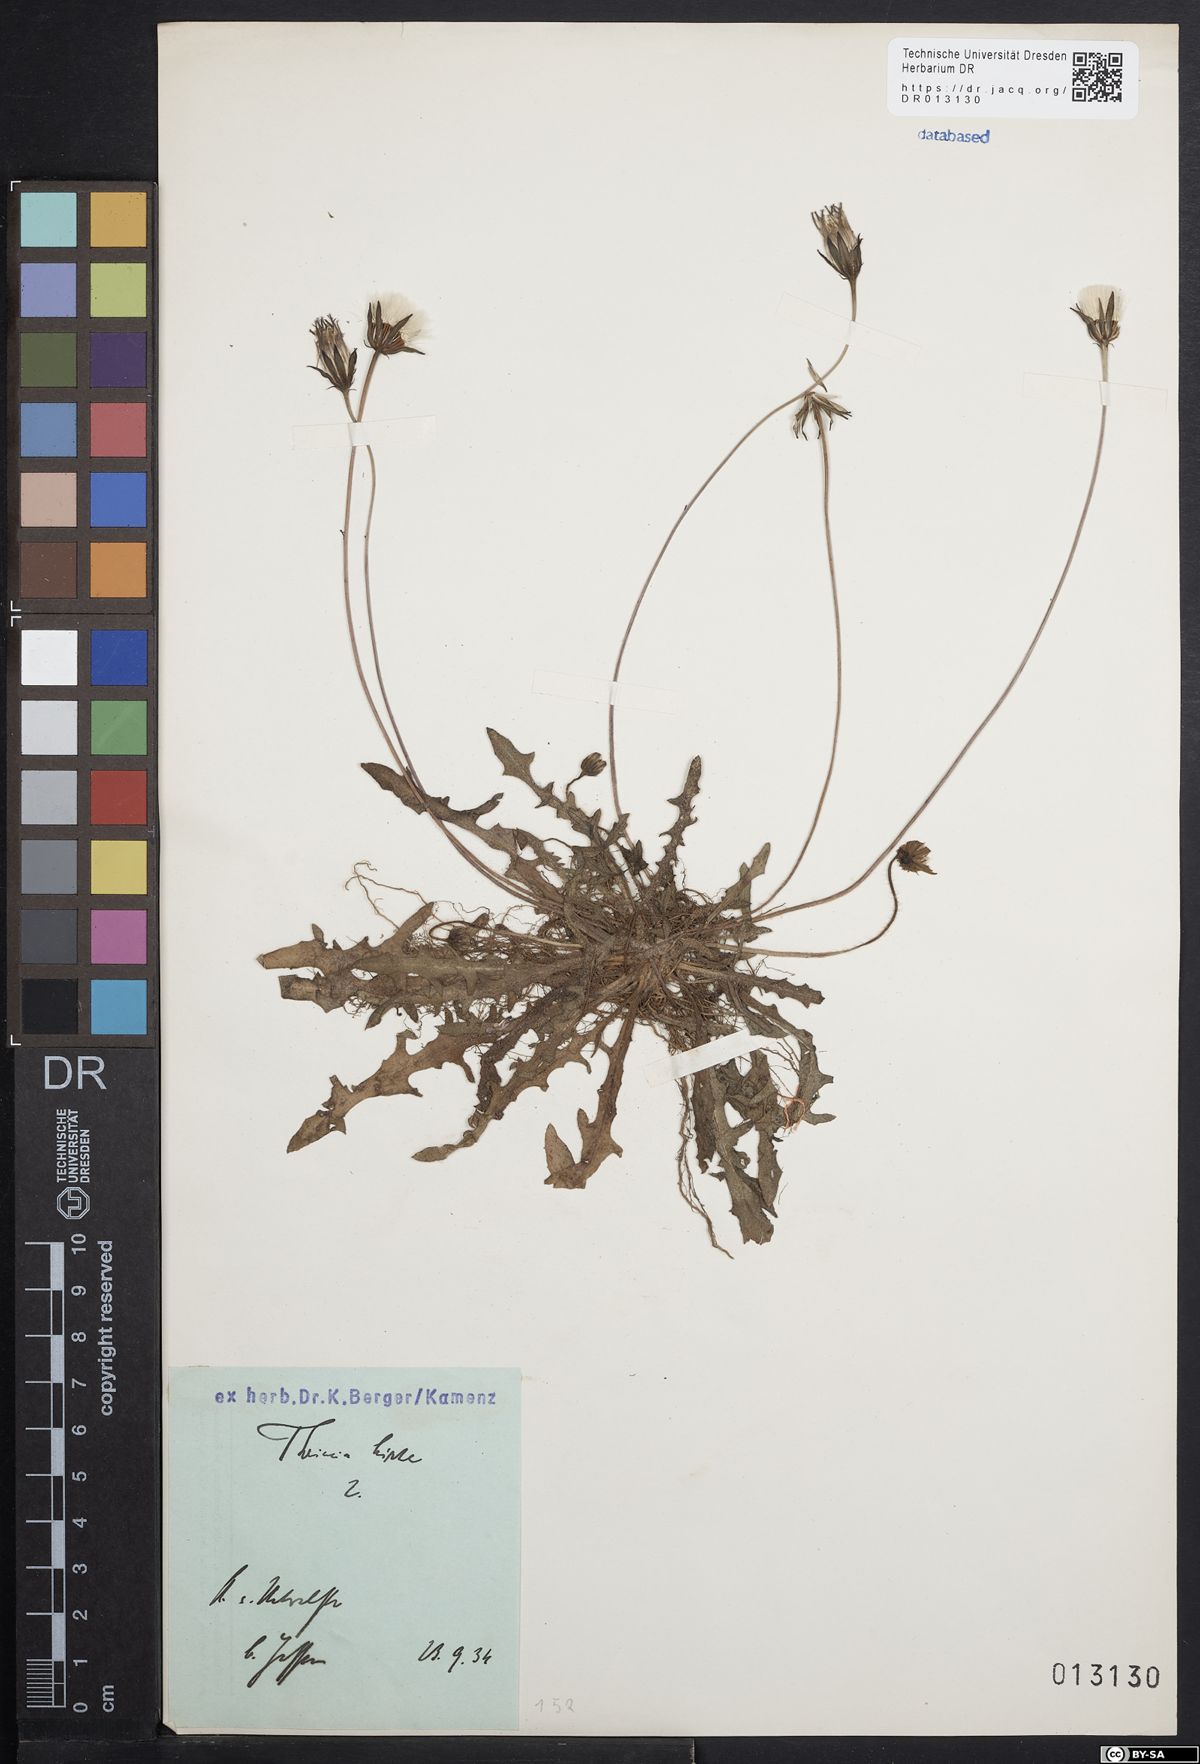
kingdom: Plantae
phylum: Tracheophyta
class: Magnoliopsida
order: Asterales
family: Asteraceae
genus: Thrincia
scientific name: Thrincia saxatilis
